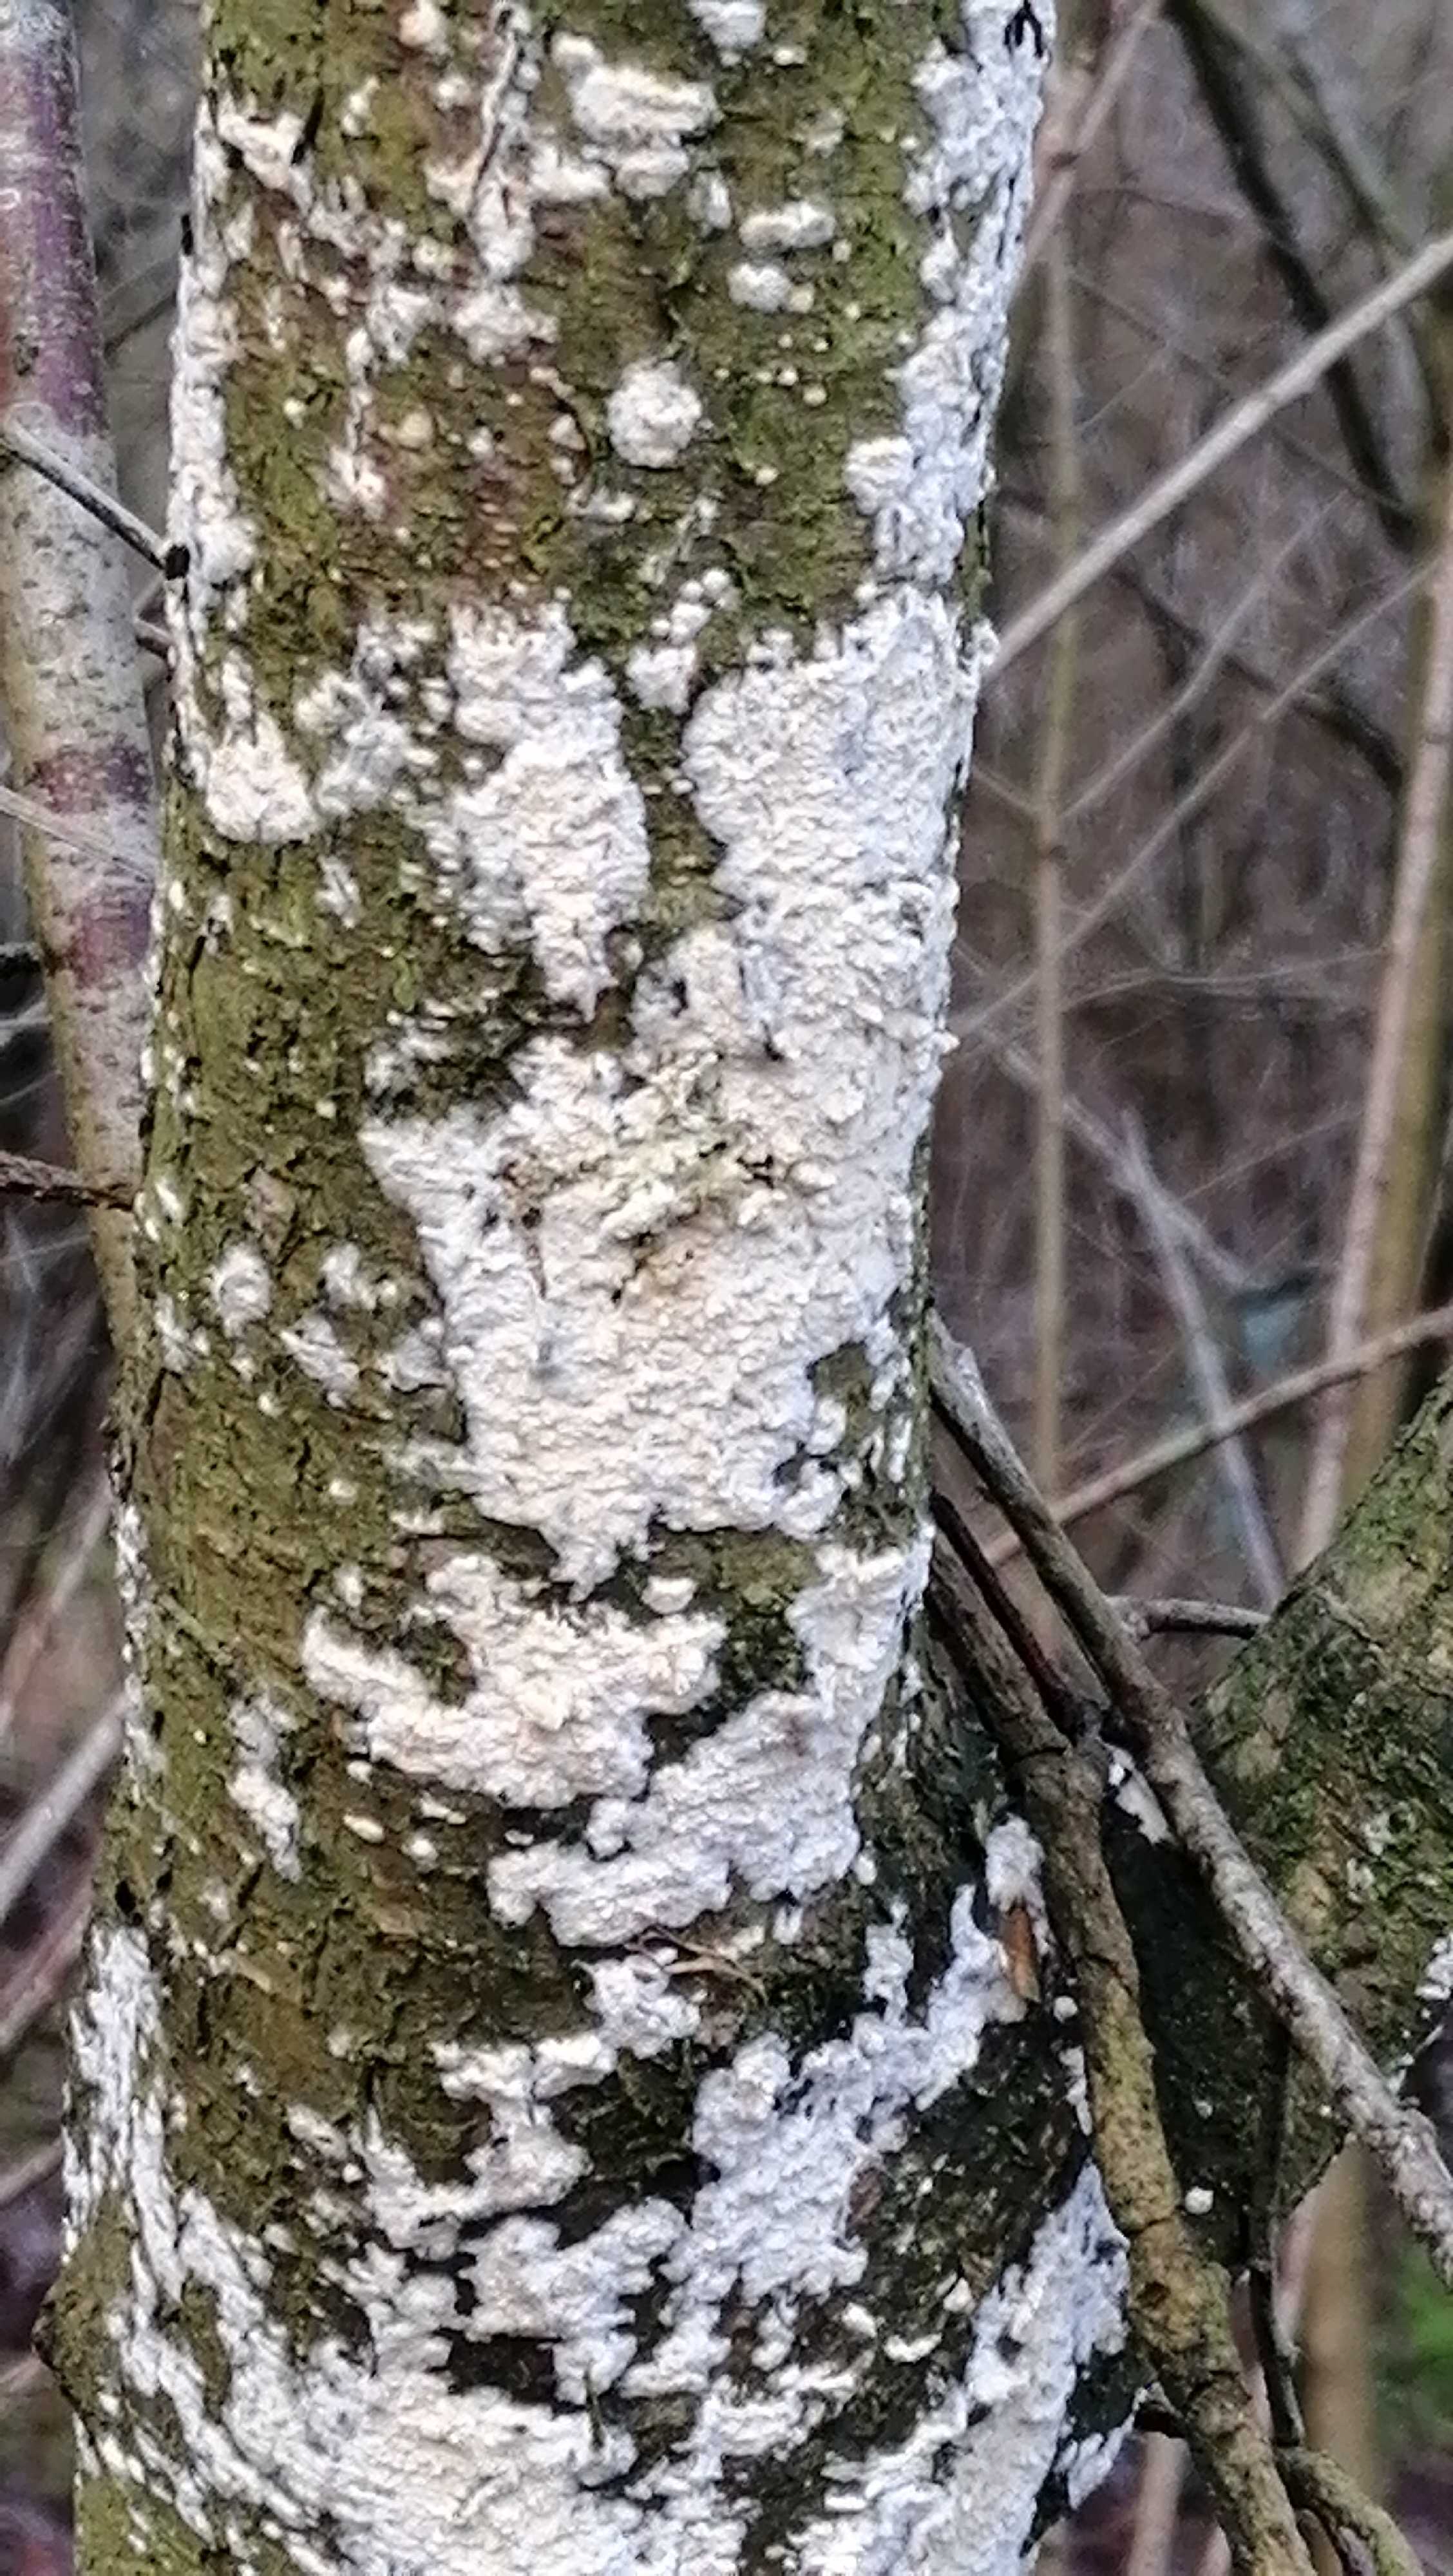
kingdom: Fungi
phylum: Basidiomycota
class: Agaricomycetes
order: Corticiales
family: Corticiaceae
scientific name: Corticiaceae
